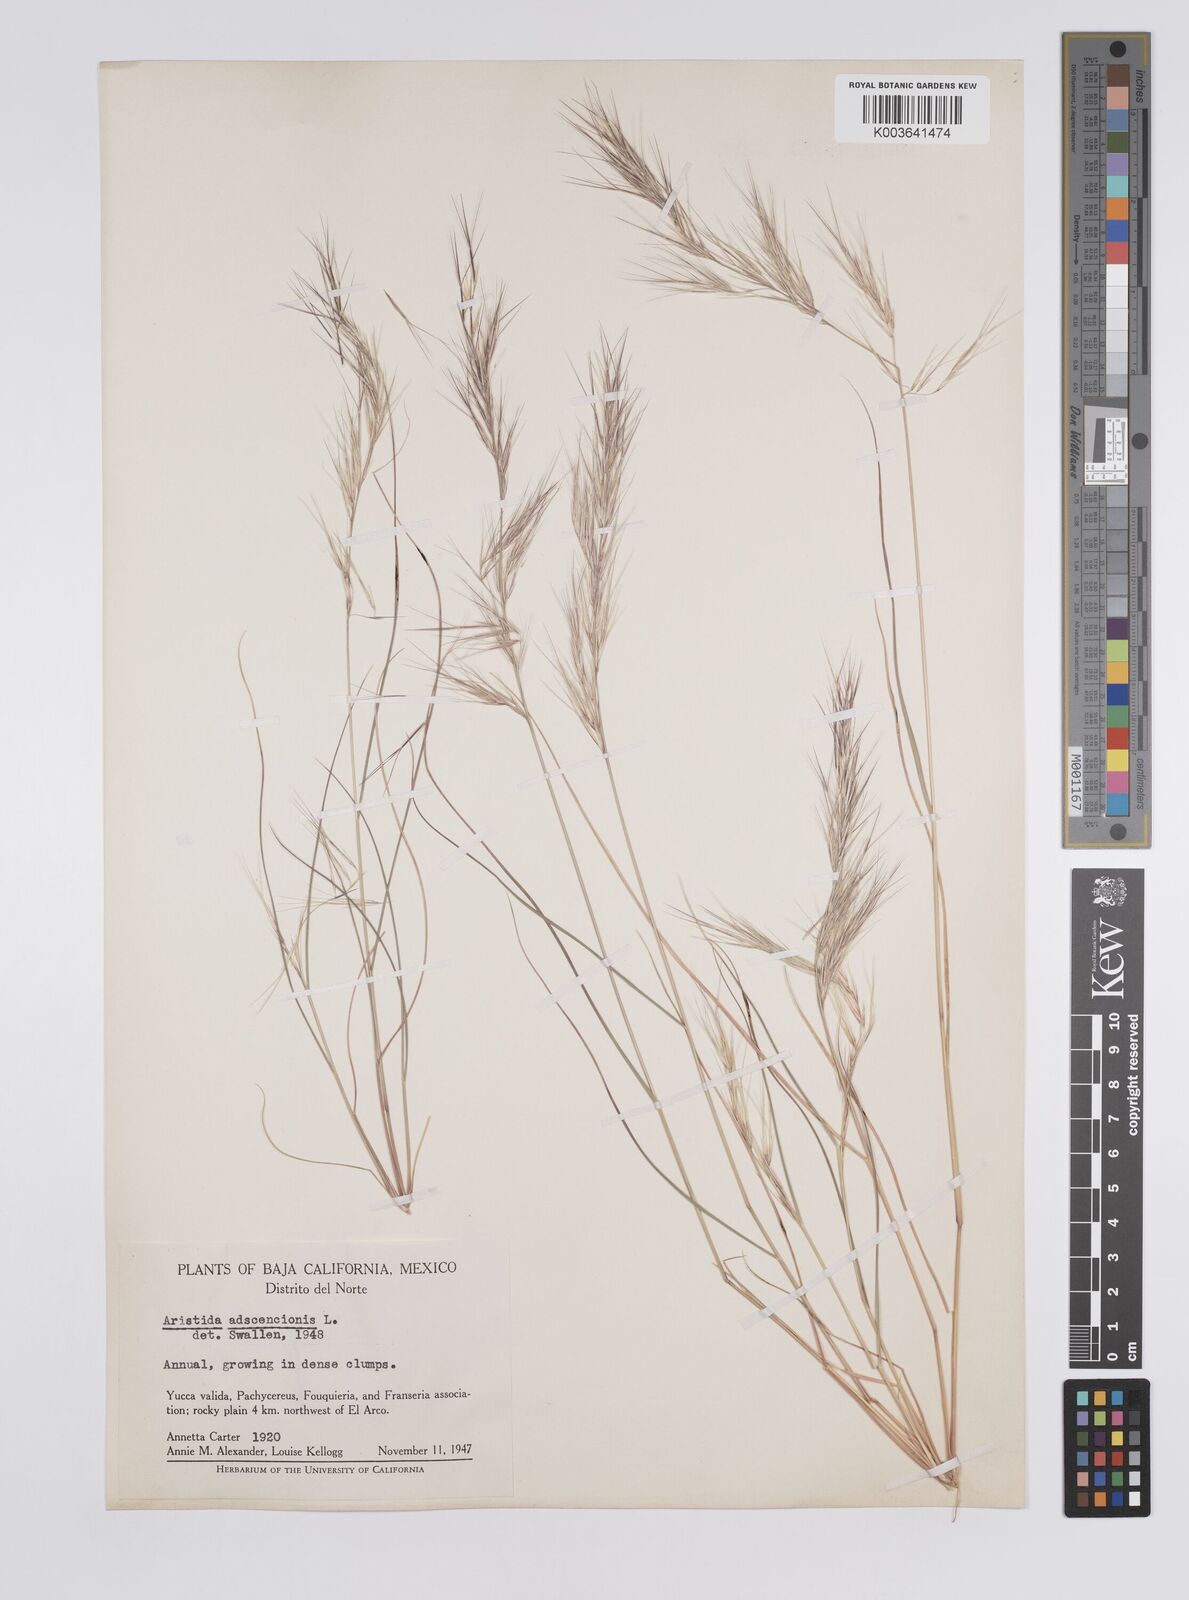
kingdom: Plantae
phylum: Tracheophyta
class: Liliopsida
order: Poales
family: Poaceae
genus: Aristida
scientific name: Aristida adscensionis
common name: Sixweeks threeawn
